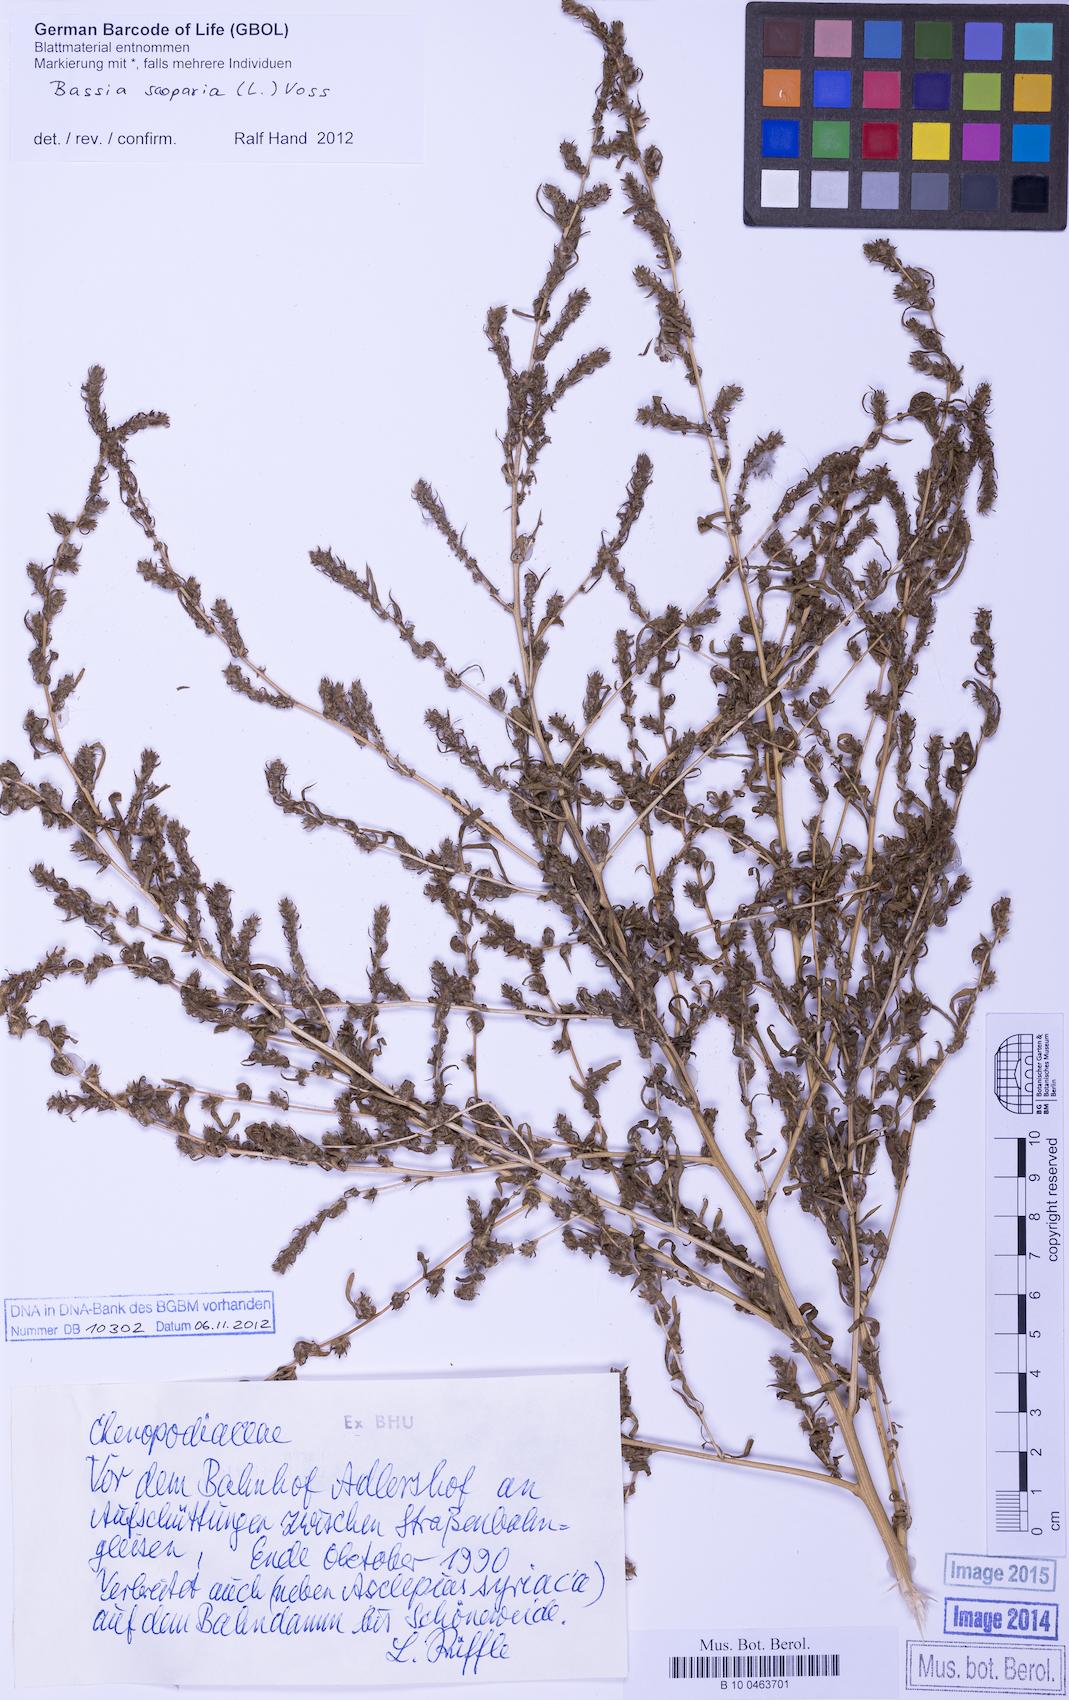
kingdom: Plantae
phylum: Tracheophyta
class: Magnoliopsida
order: Caryophyllales
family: Amaranthaceae
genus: Bassia
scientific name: Bassia scoparia
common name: Belvedere
